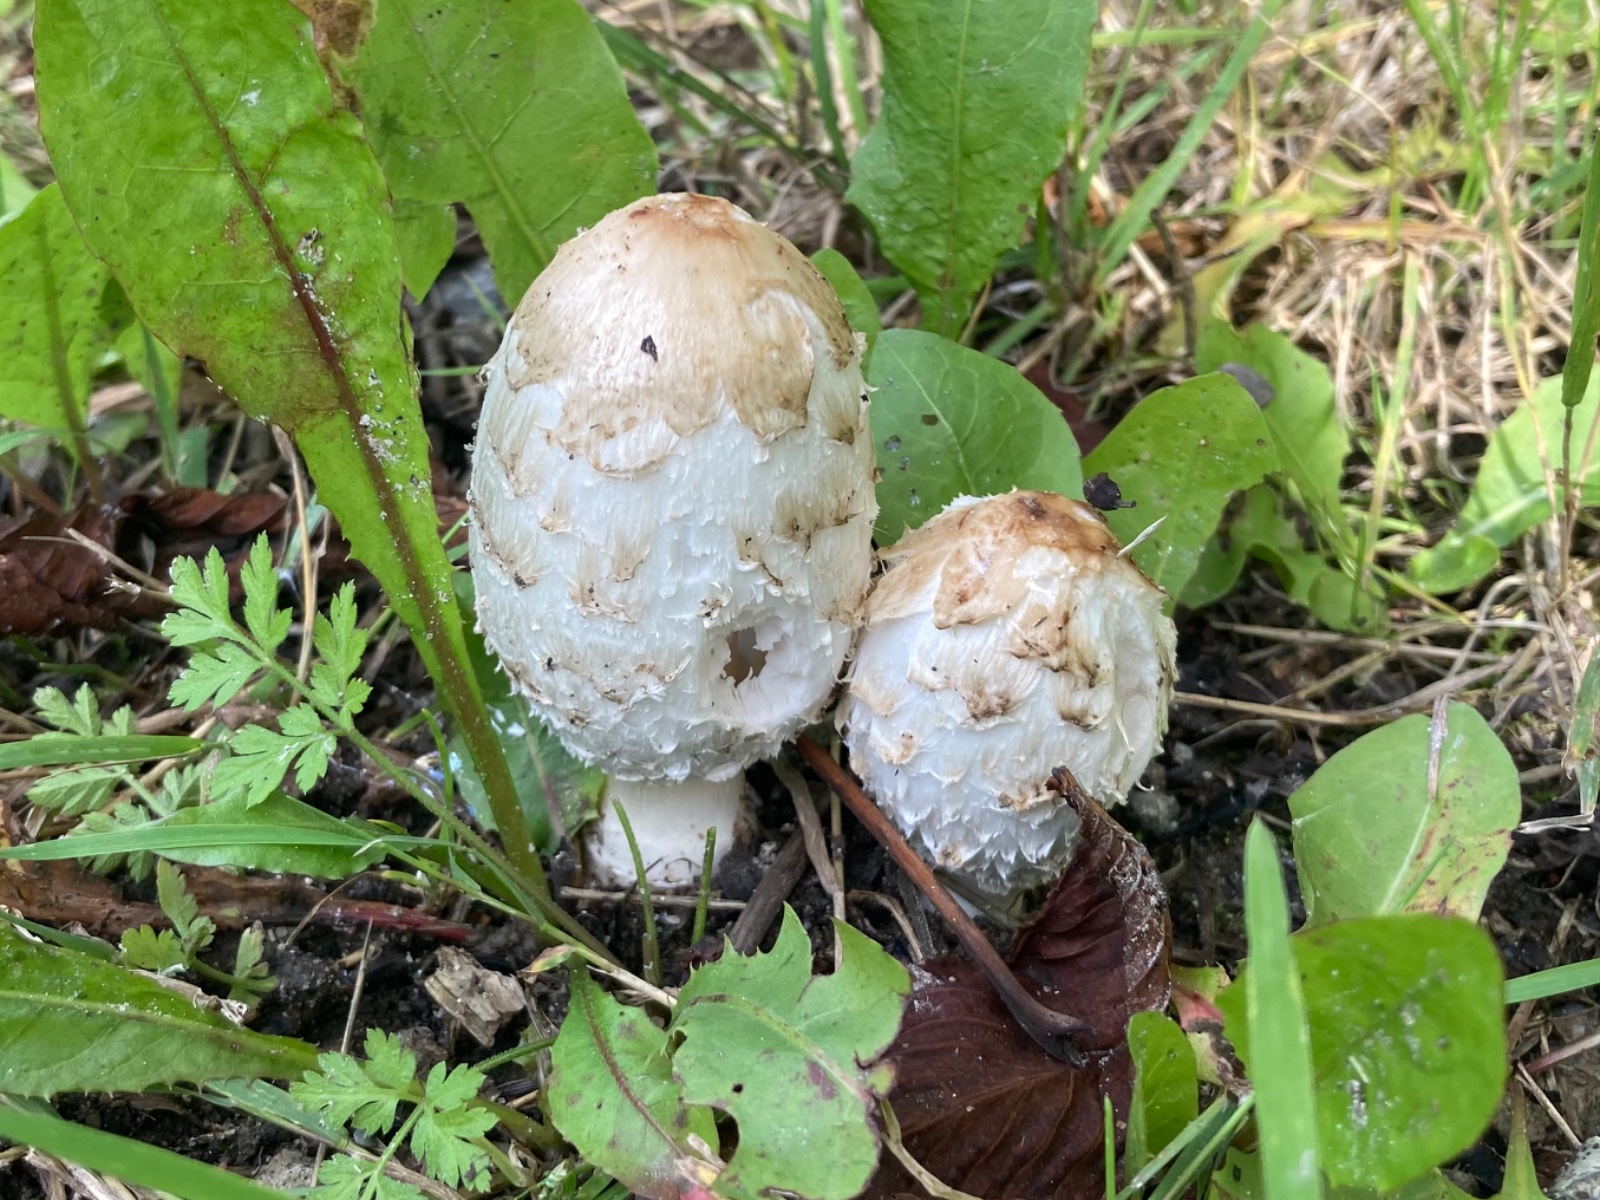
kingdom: Fungi
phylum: Basidiomycota
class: Agaricomycetes
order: Agaricales
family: Agaricaceae
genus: Coprinus
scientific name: Coprinus comatus
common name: stor parykhat
